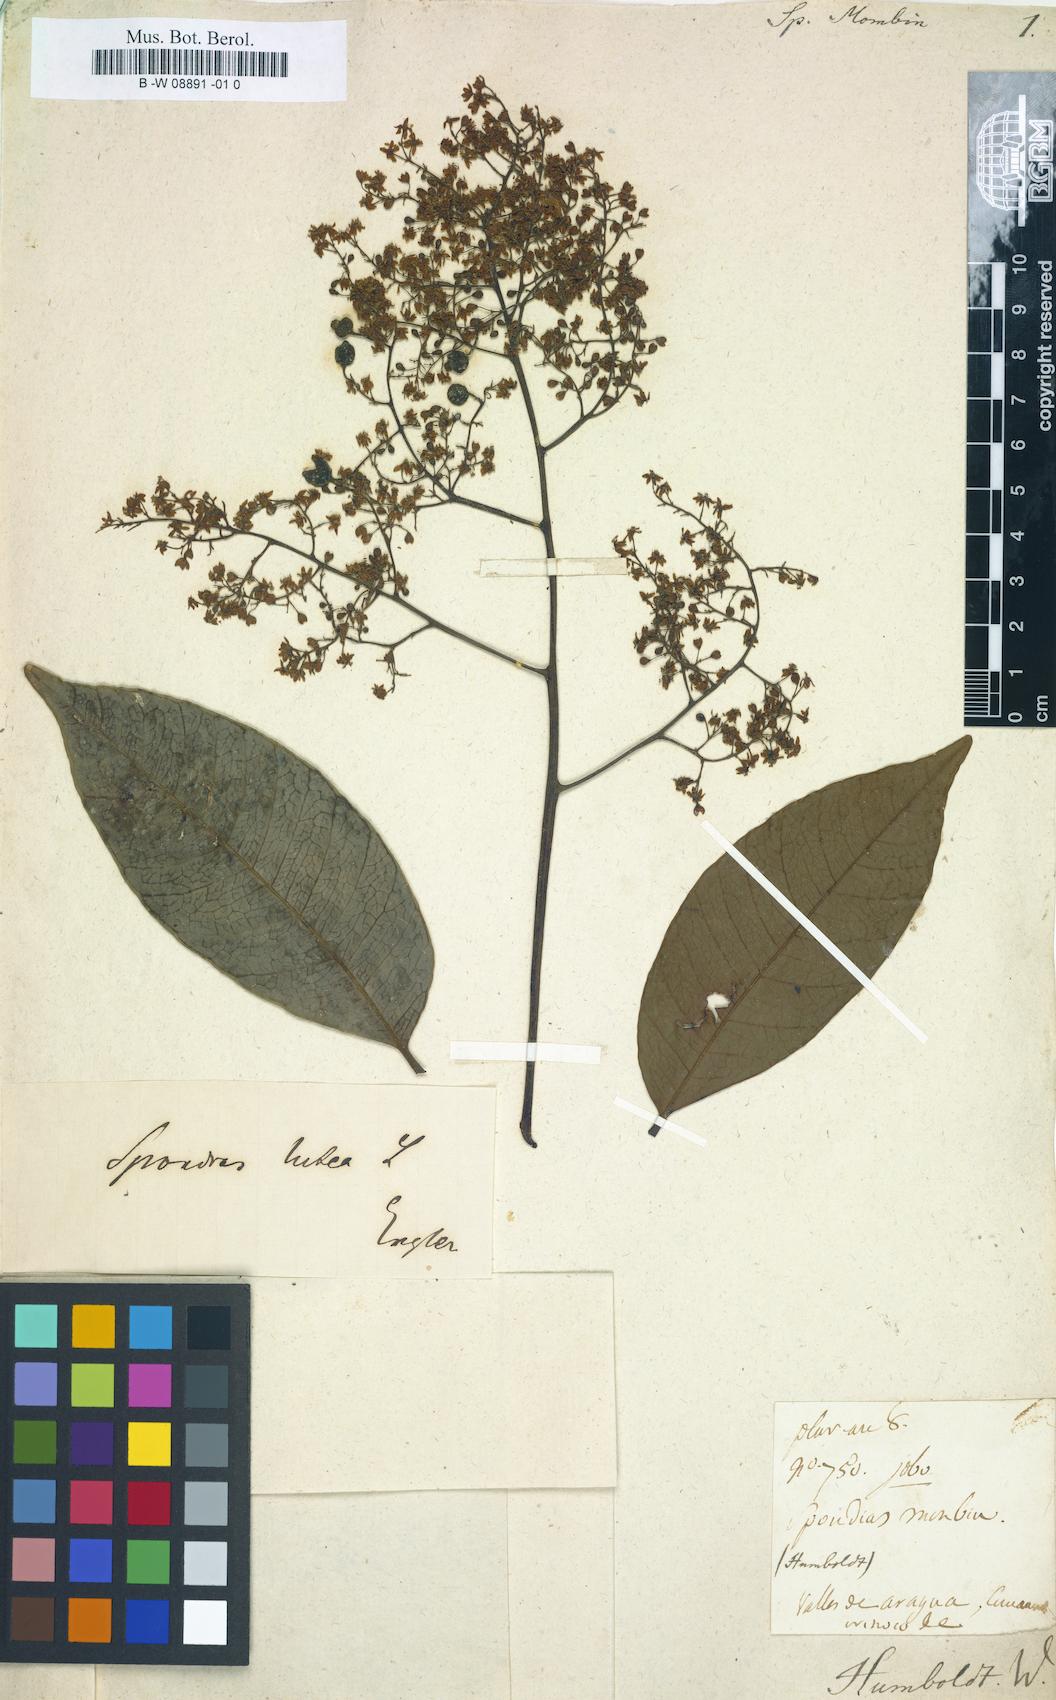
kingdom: Plantae
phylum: Tracheophyta
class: Magnoliopsida
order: Sapindales
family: Anacardiaceae
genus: Spondias
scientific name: Spondias mombin
